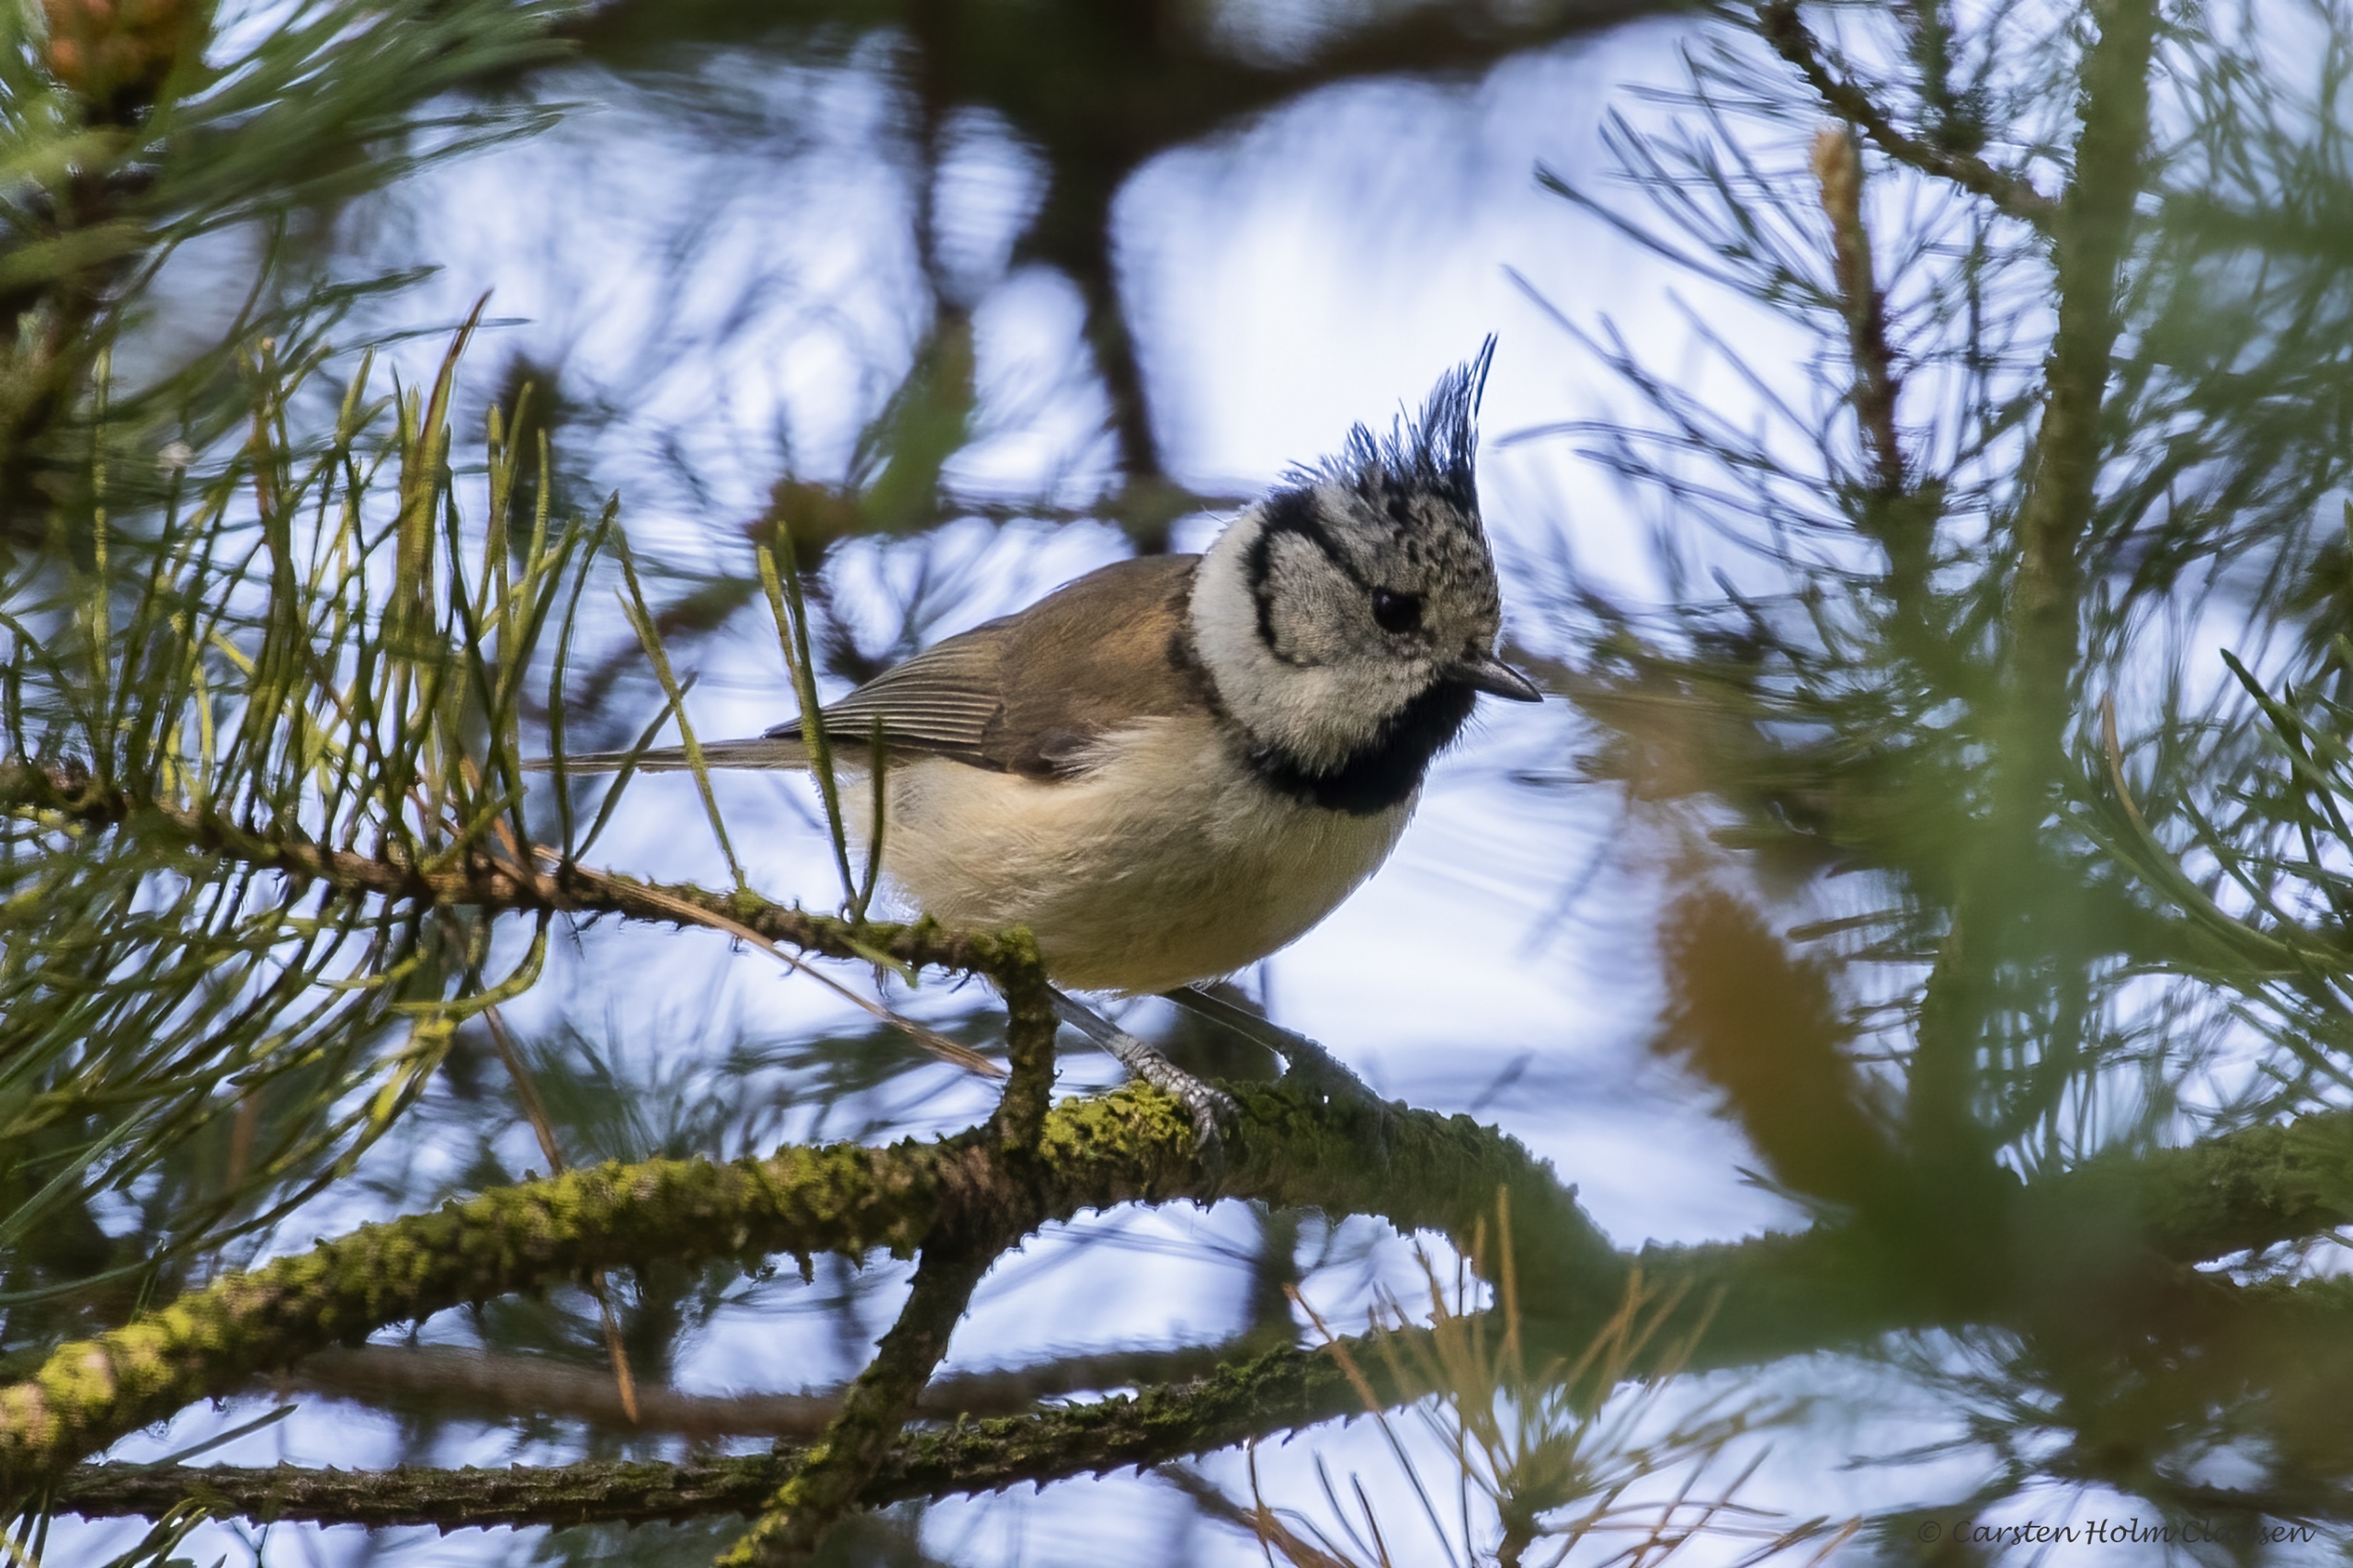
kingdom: Animalia
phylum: Chordata
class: Aves
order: Passeriformes
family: Paridae
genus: Lophophanes
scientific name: Lophophanes cristatus
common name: Topmejse
